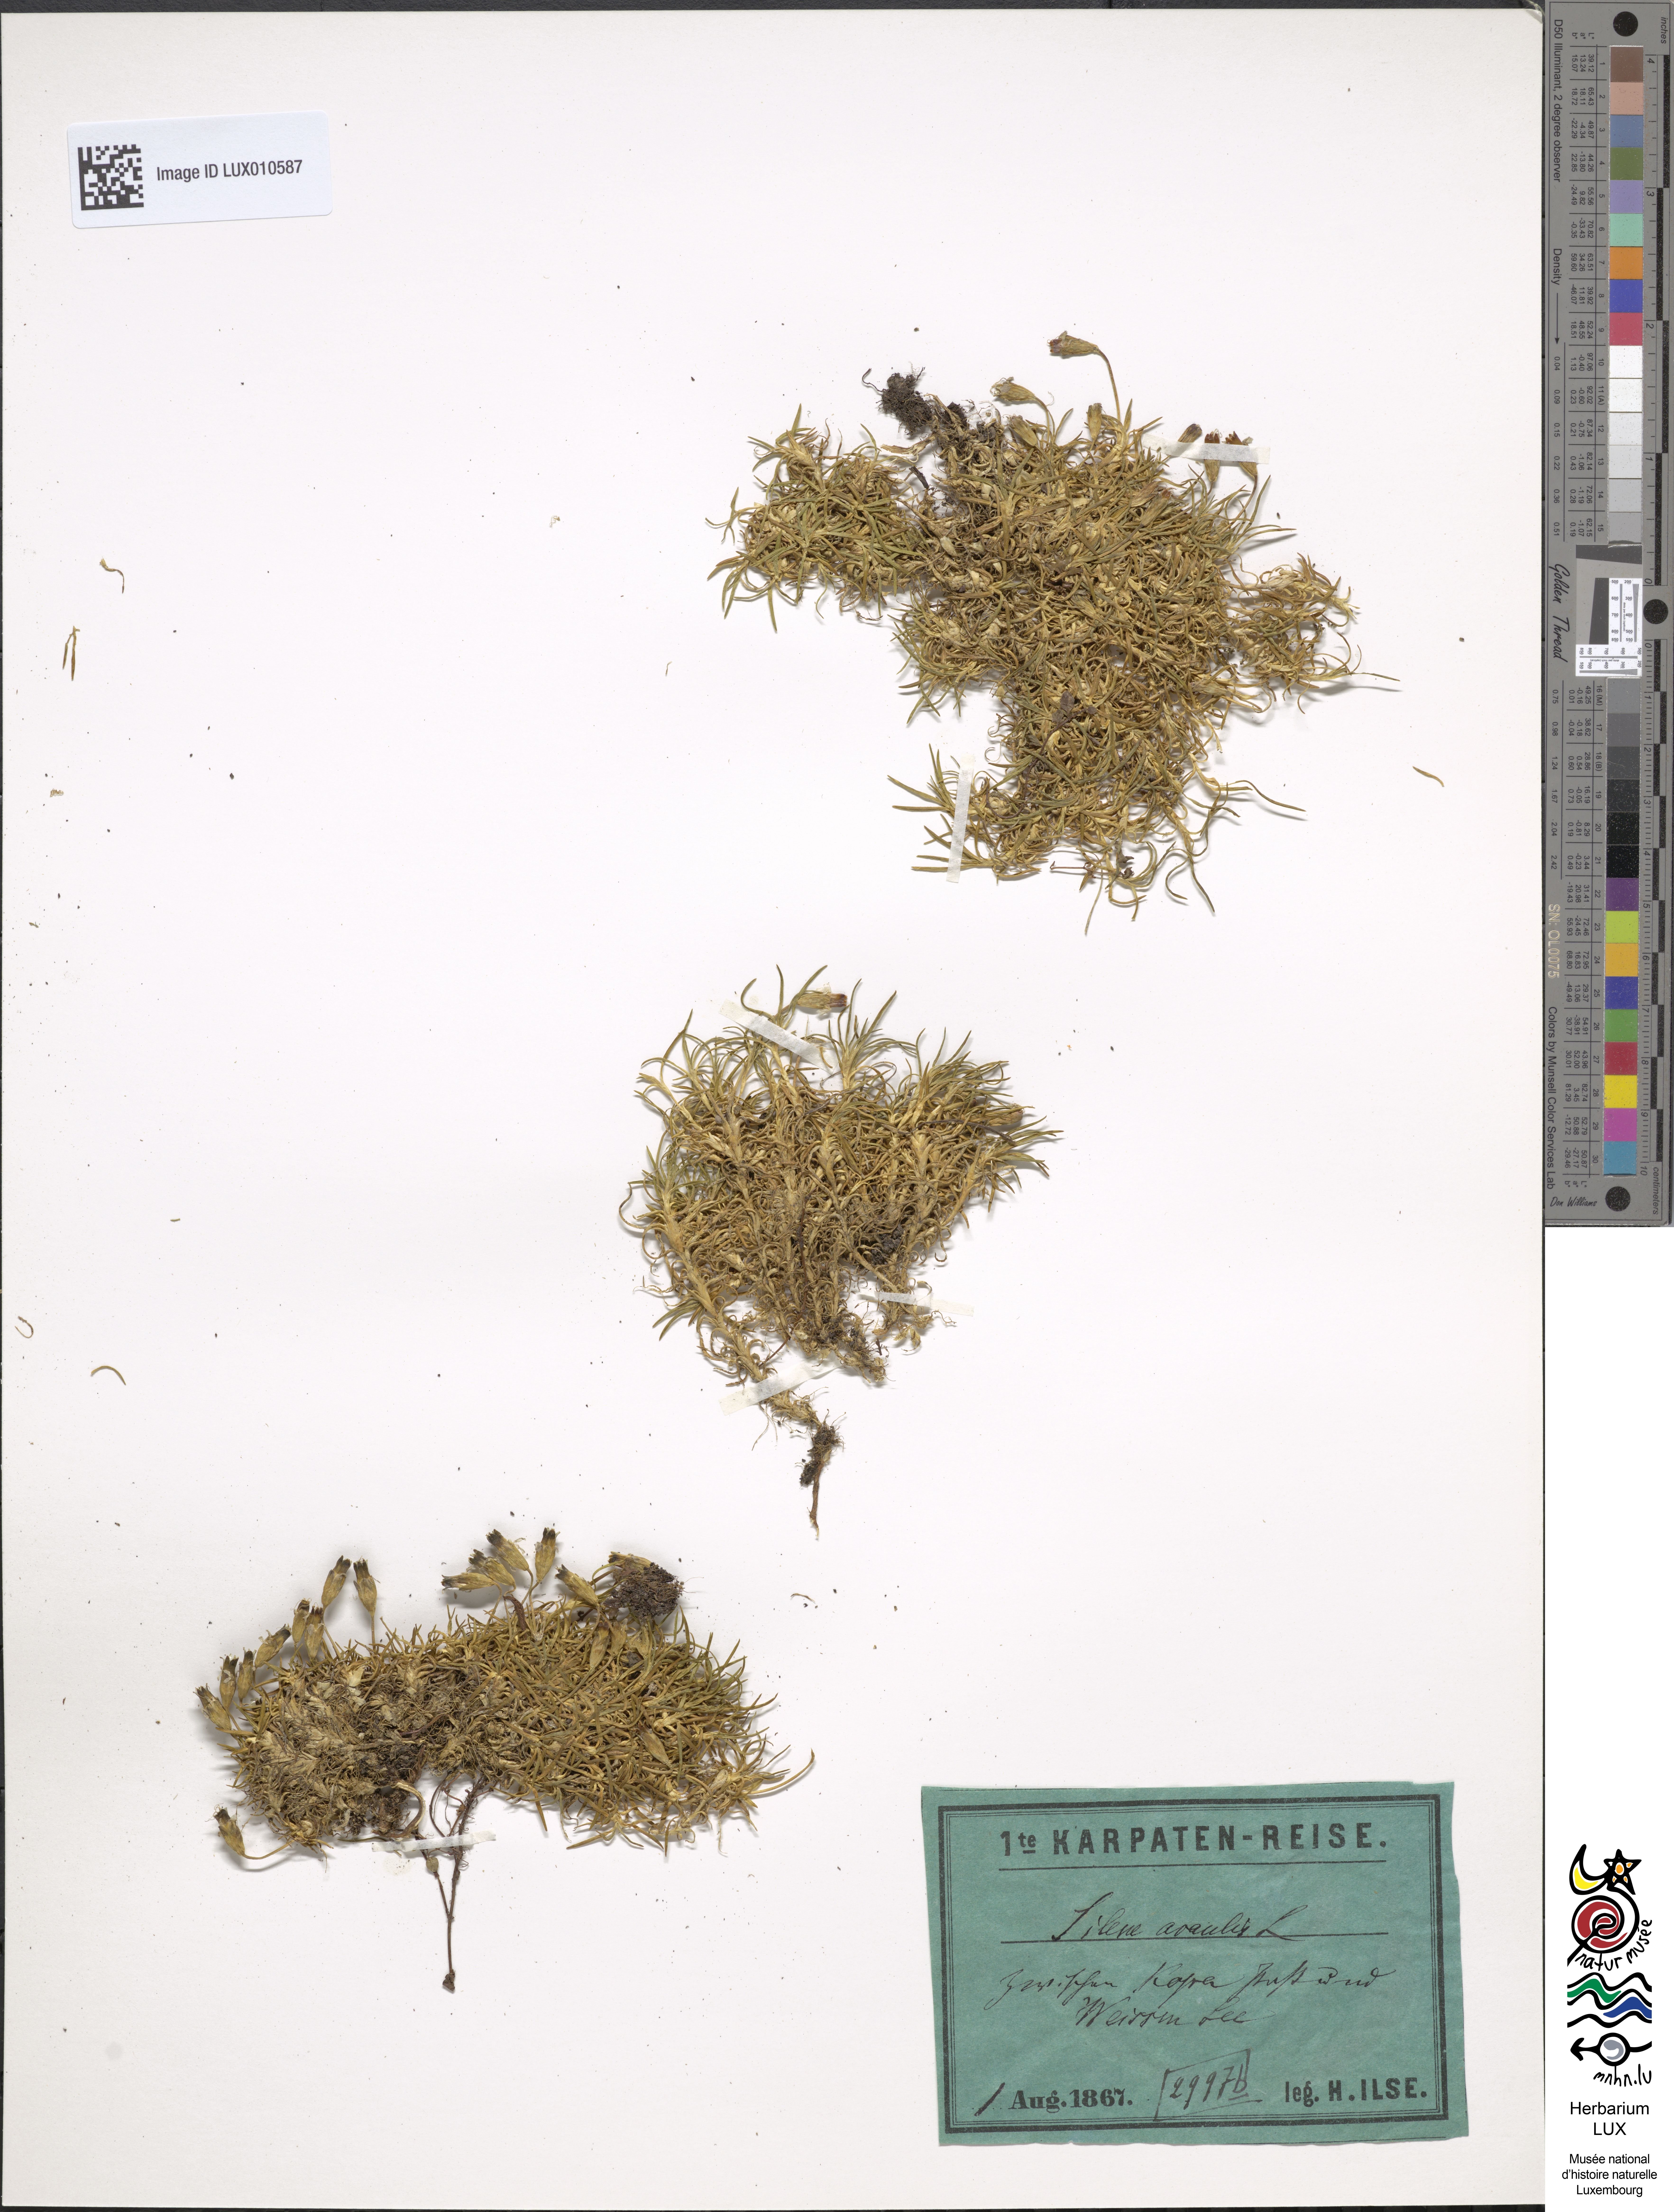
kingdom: Plantae
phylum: Tracheophyta
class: Magnoliopsida
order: Caryophyllales
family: Caryophyllaceae
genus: Silene
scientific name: Silene acaulis
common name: Moss campion
